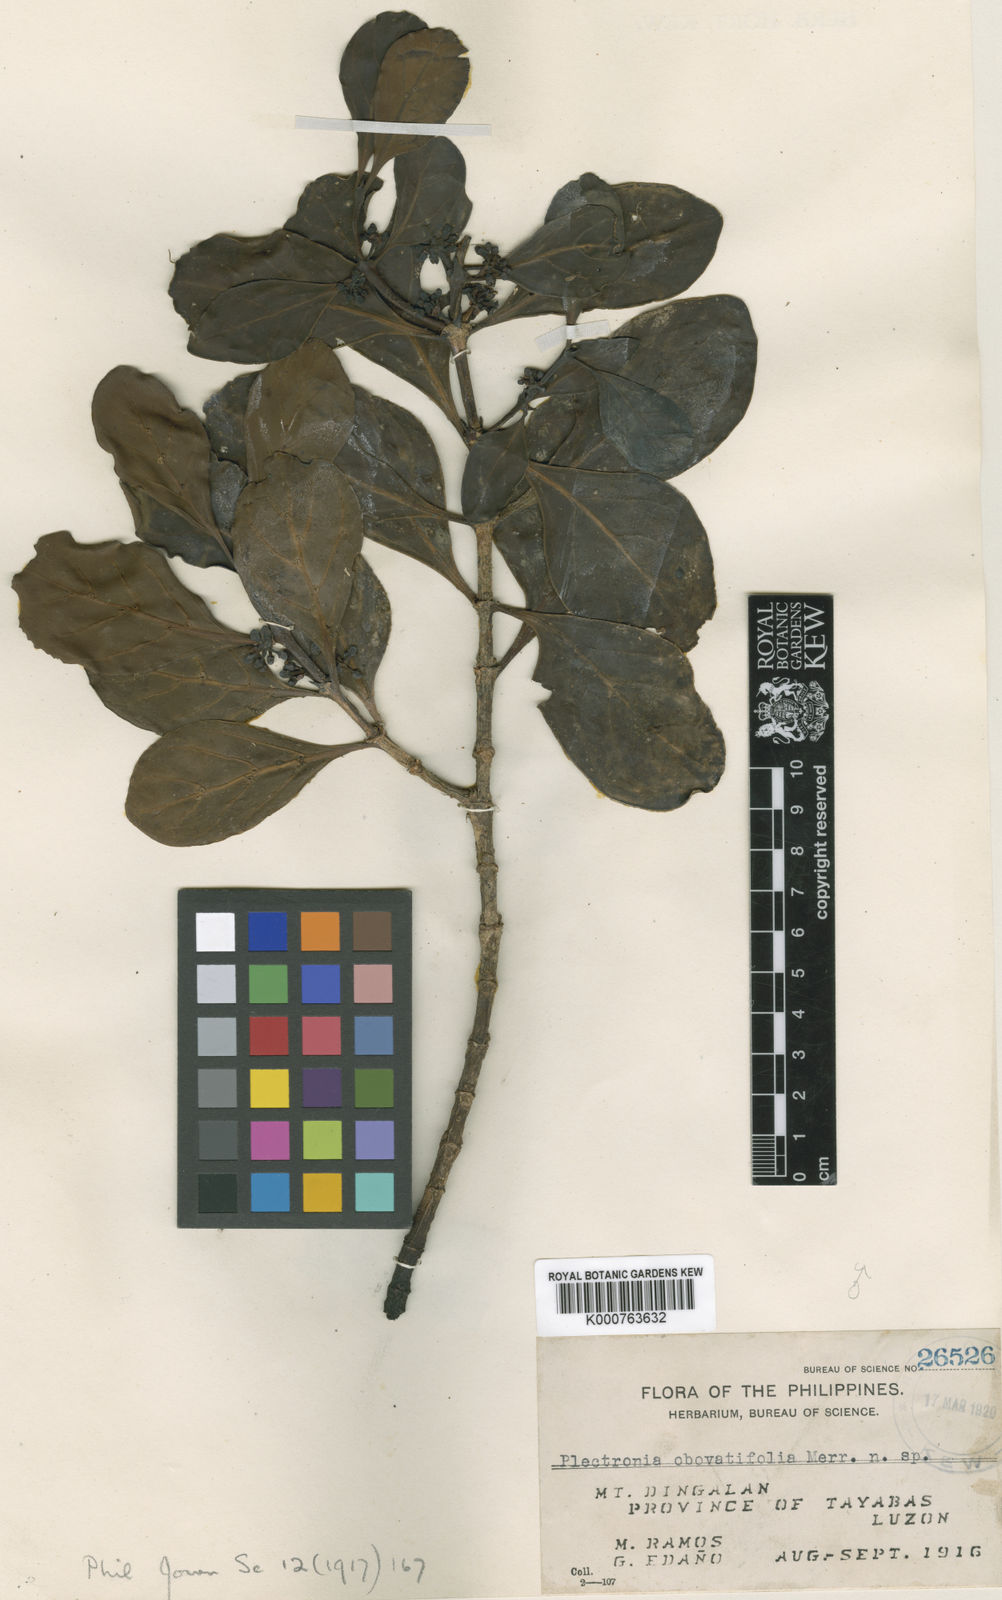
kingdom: Plantae
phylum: Tracheophyta
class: Magnoliopsida
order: Gentianales
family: Rubiaceae
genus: Pyrostria
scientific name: Pyrostria obovatifolia
